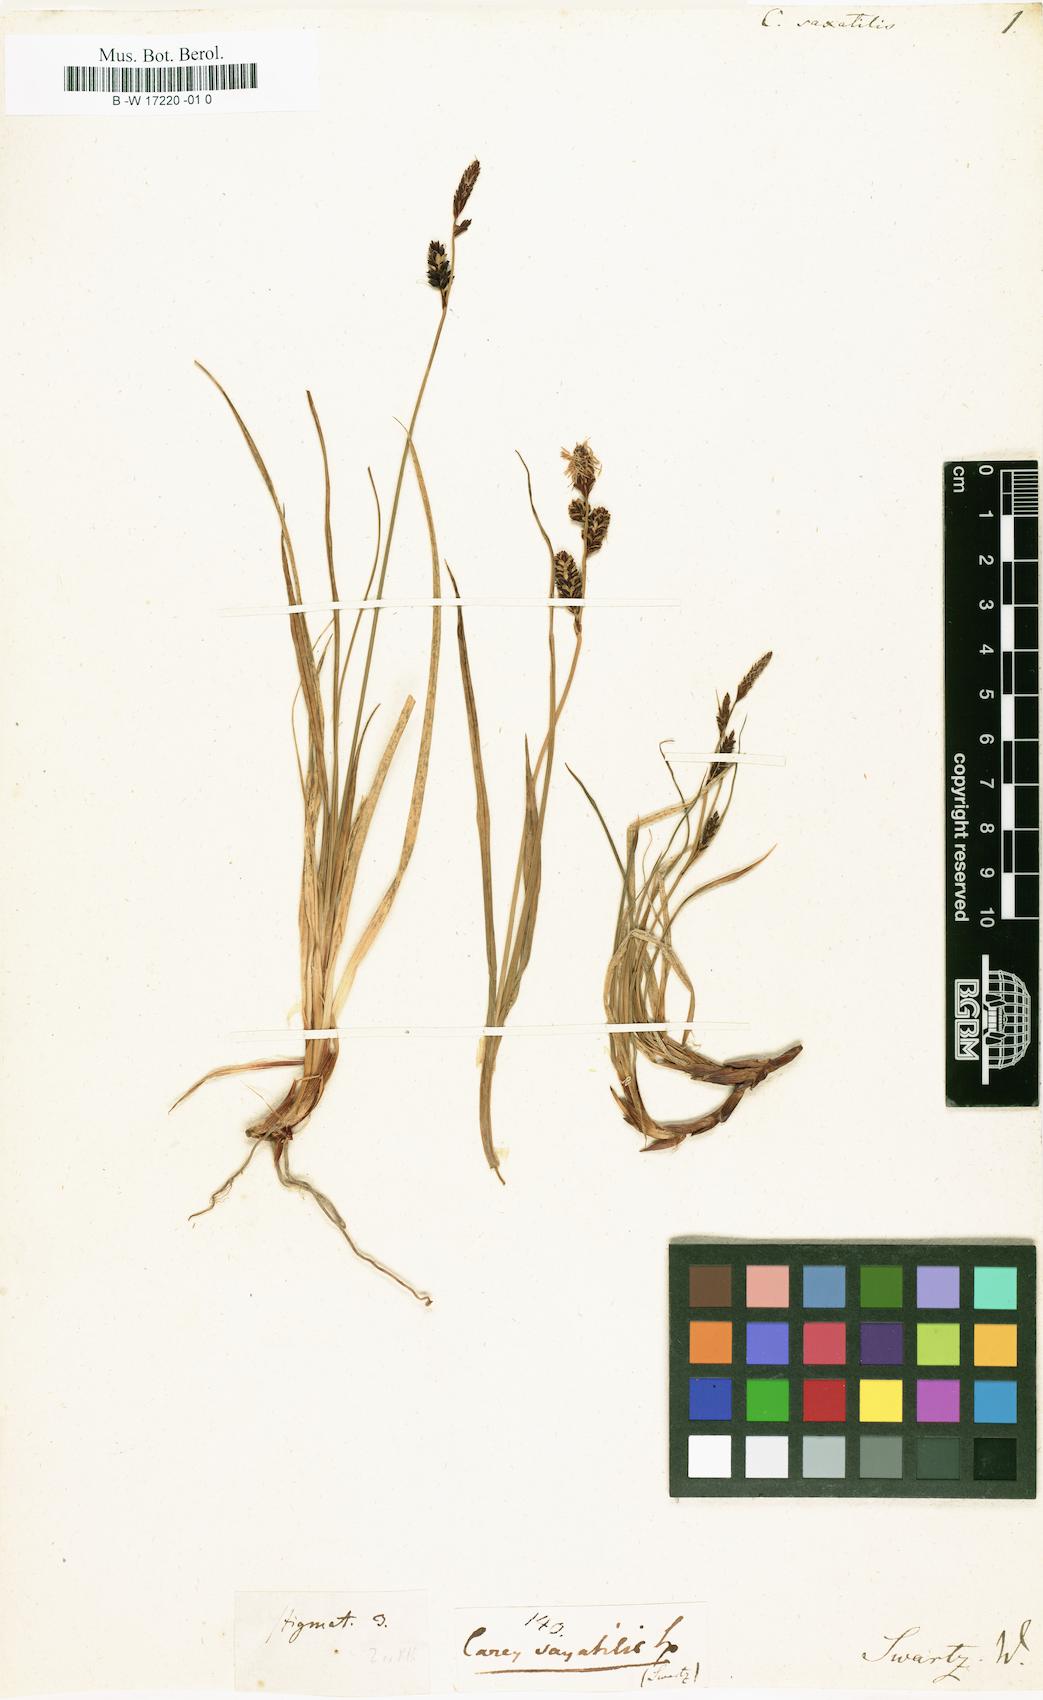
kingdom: Plantae
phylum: Tracheophyta
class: Liliopsida
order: Poales
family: Cyperaceae
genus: Carex
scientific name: Carex saxatilis
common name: Russet sedge
